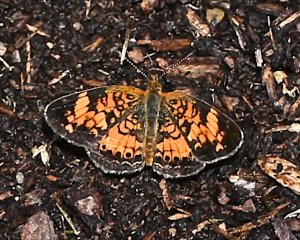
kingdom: Animalia
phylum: Arthropoda
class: Insecta
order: Lepidoptera
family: Nymphalidae
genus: Phyciodes
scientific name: Phyciodes tharos
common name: Pearl Crescent
